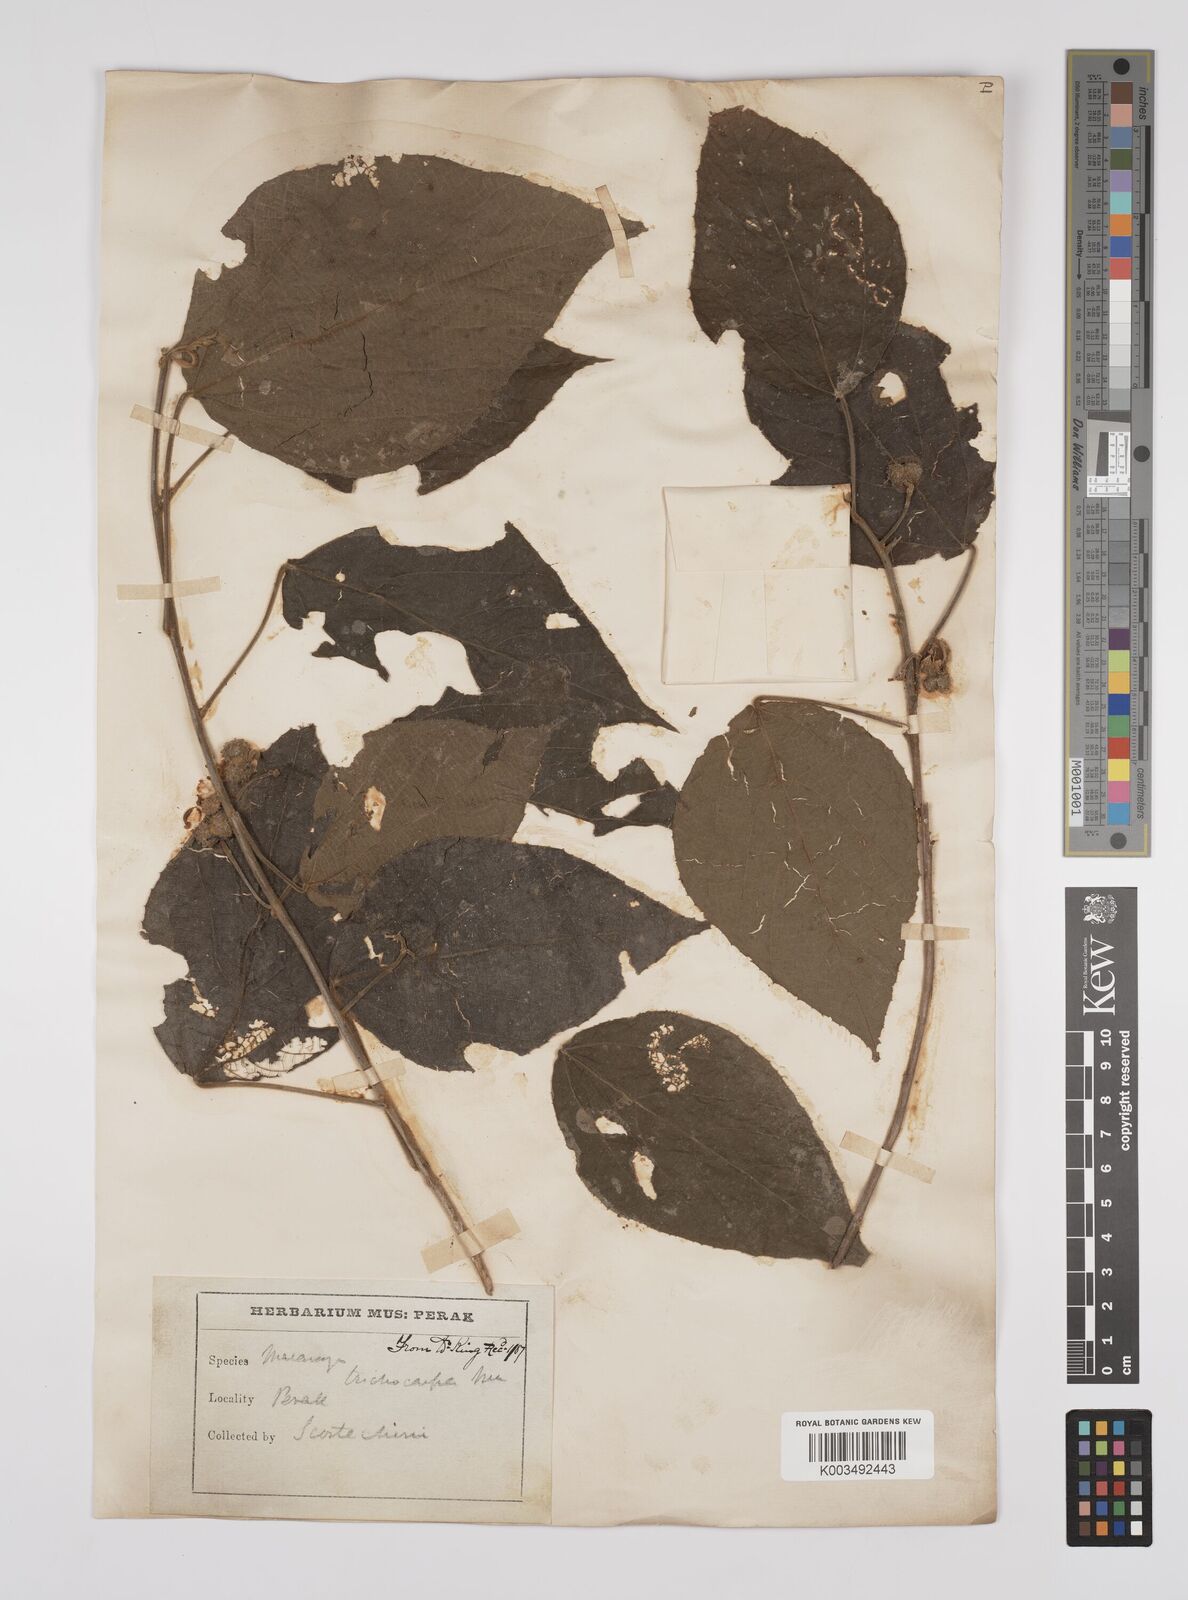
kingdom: Plantae
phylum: Tracheophyta
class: Magnoliopsida
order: Malpighiales
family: Euphorbiaceae
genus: Macaranga
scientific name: Macaranga trichocarpa
